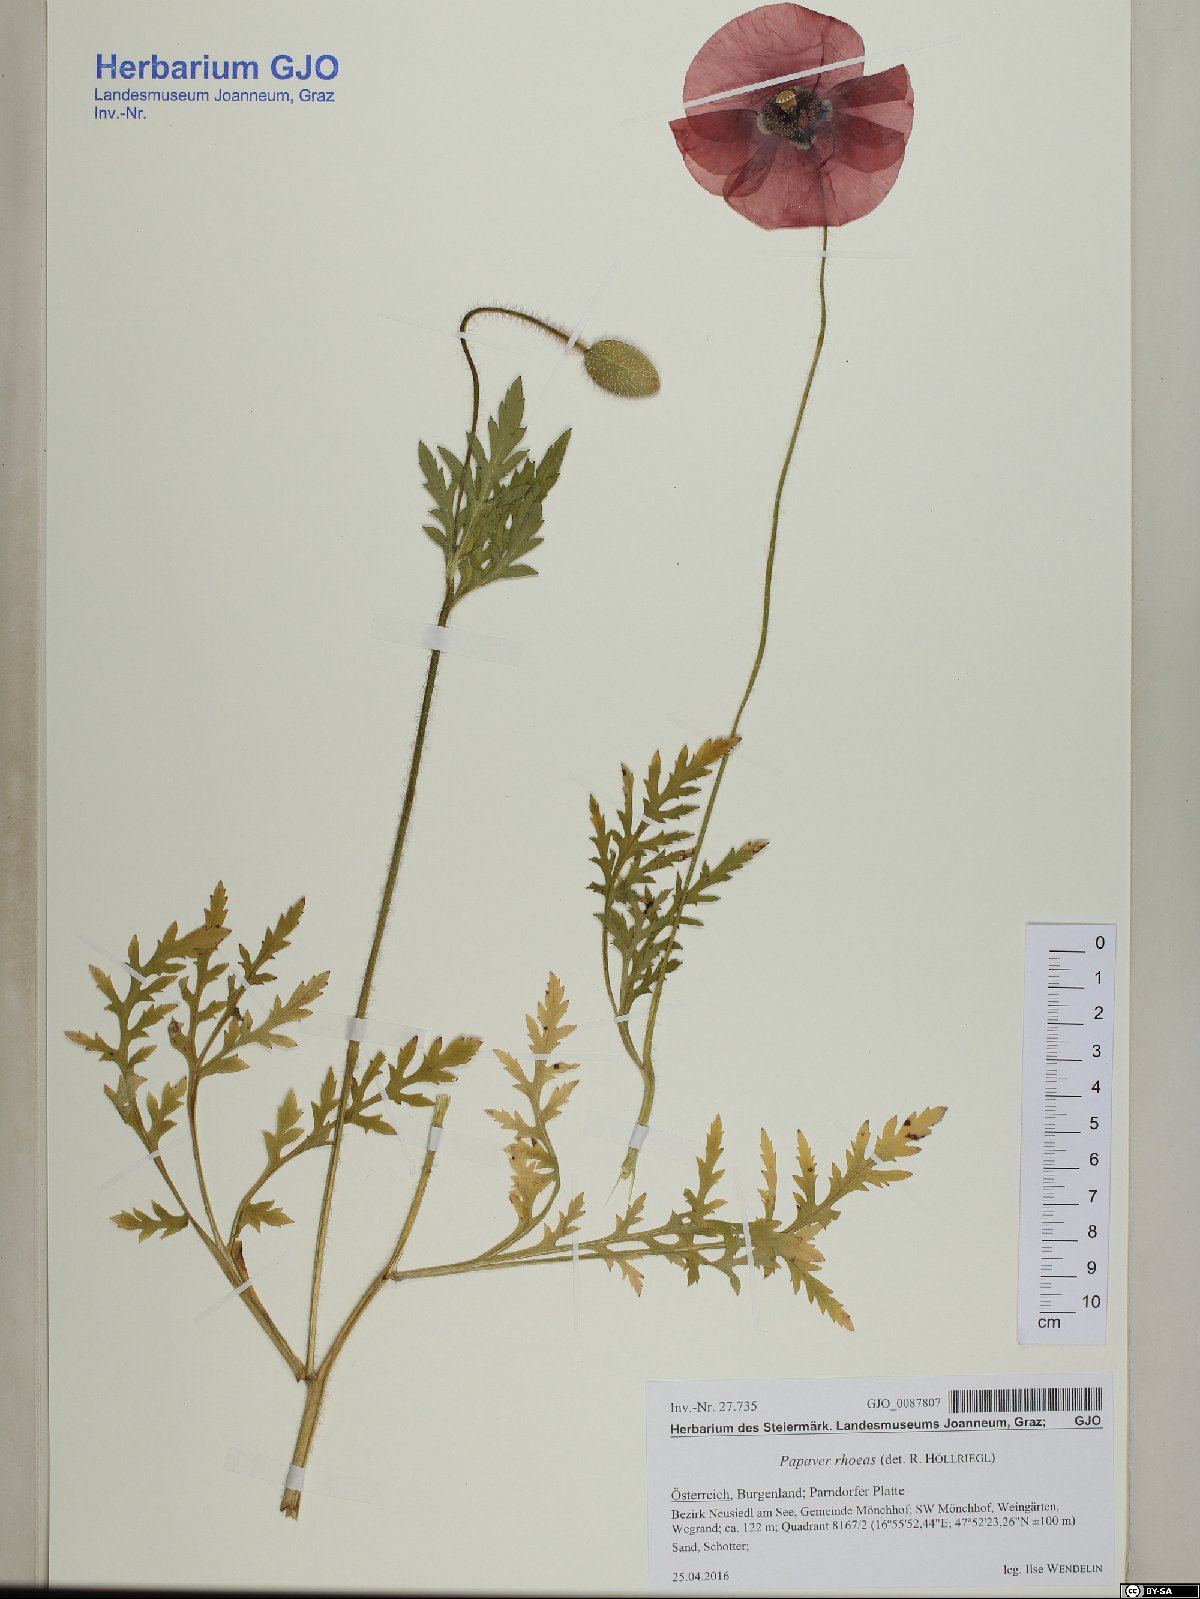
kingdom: Plantae
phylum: Tracheophyta
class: Magnoliopsida
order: Ranunculales
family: Papaveraceae
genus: Papaver
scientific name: Papaver rhoeas
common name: Corn poppy
